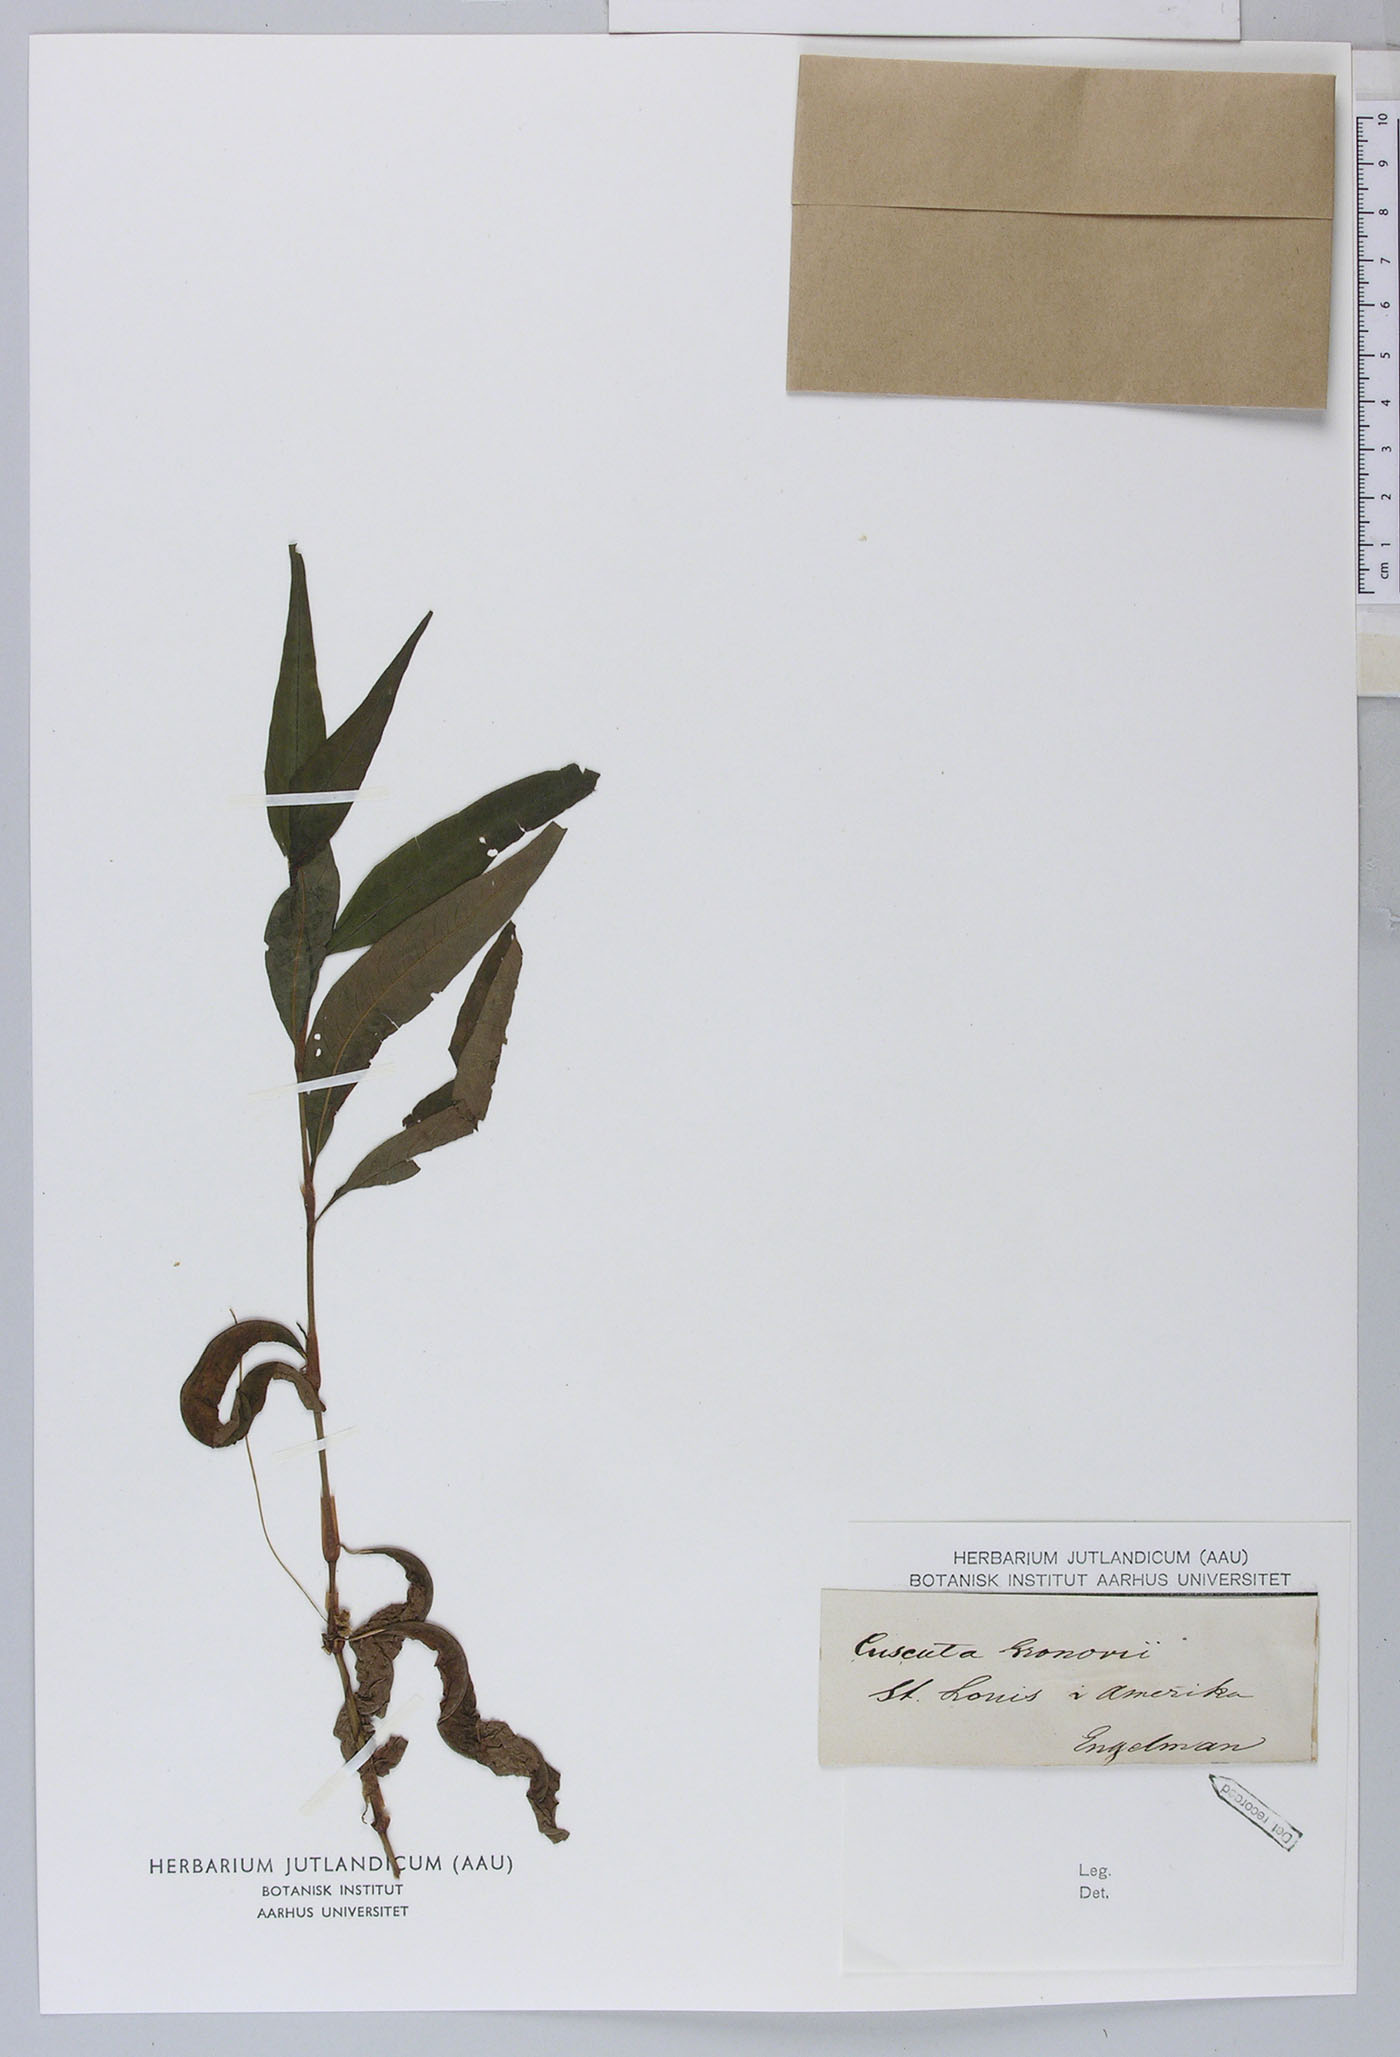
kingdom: Plantae
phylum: Tracheophyta
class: Magnoliopsida
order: Solanales
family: Convolvulaceae
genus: Cuscuta
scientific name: Cuscuta gronovii
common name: Common dodder
